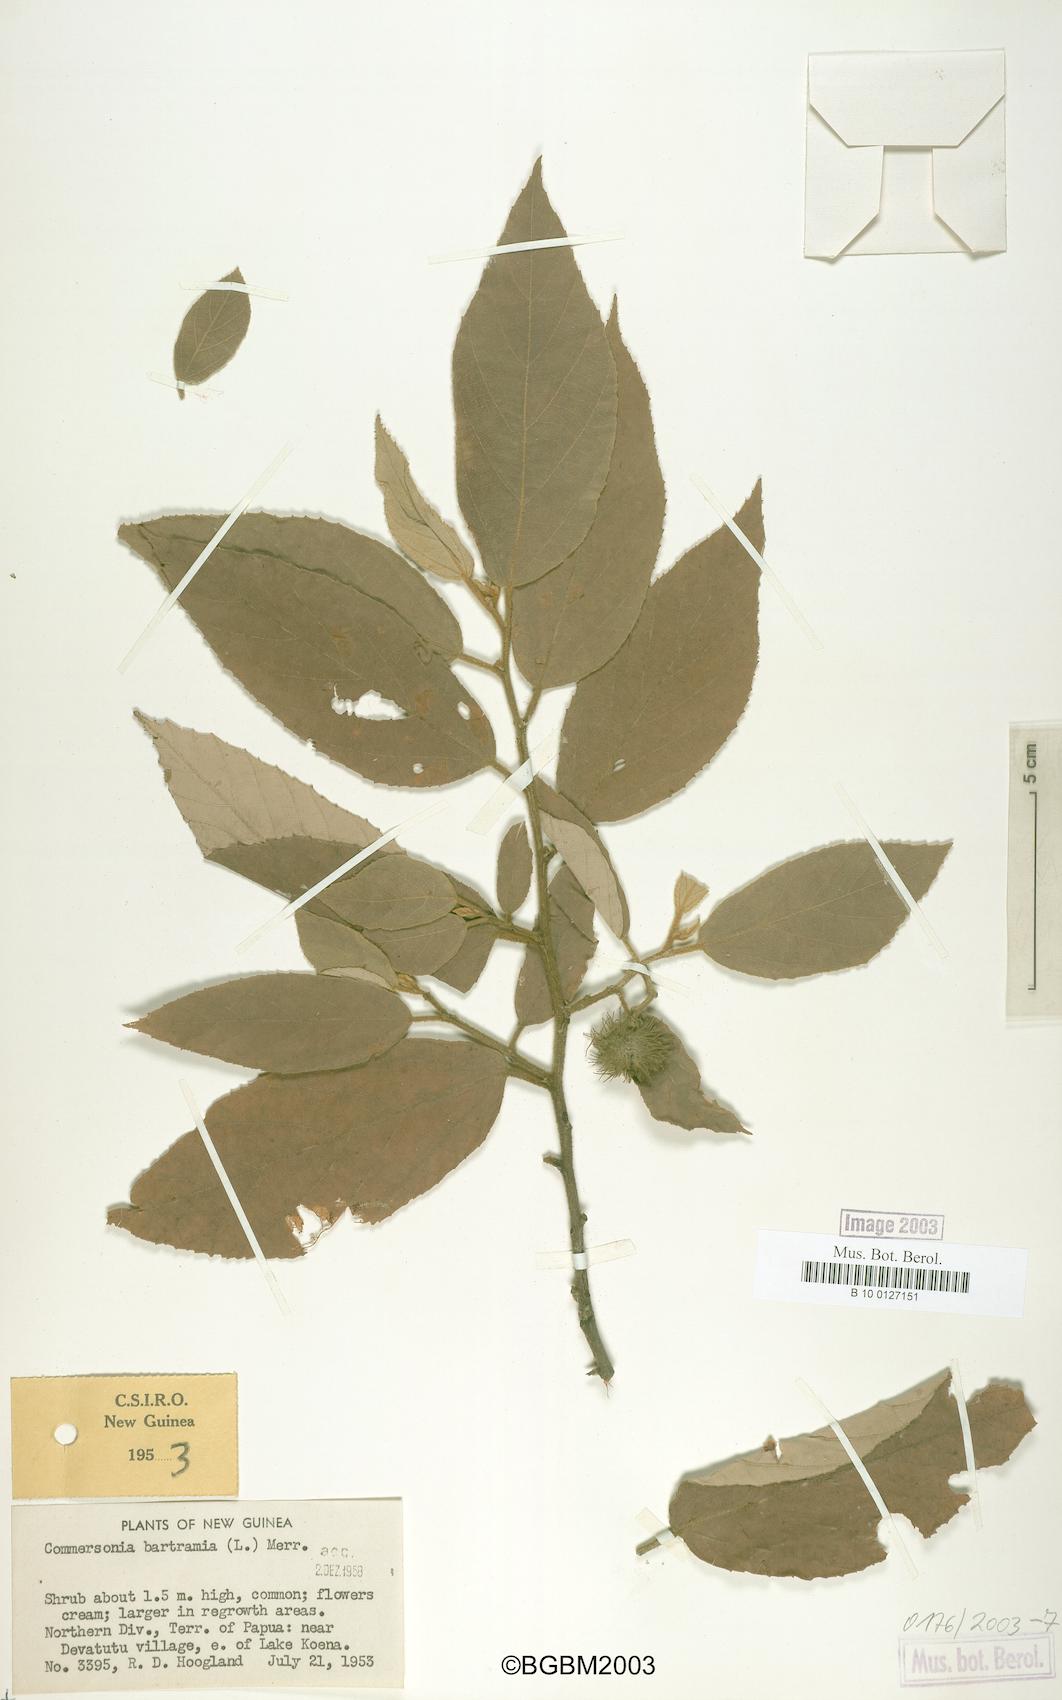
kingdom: Plantae
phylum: Tracheophyta
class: Magnoliopsida
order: Malvales
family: Malvaceae
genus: Commersonia
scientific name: Commersonia bartramia
